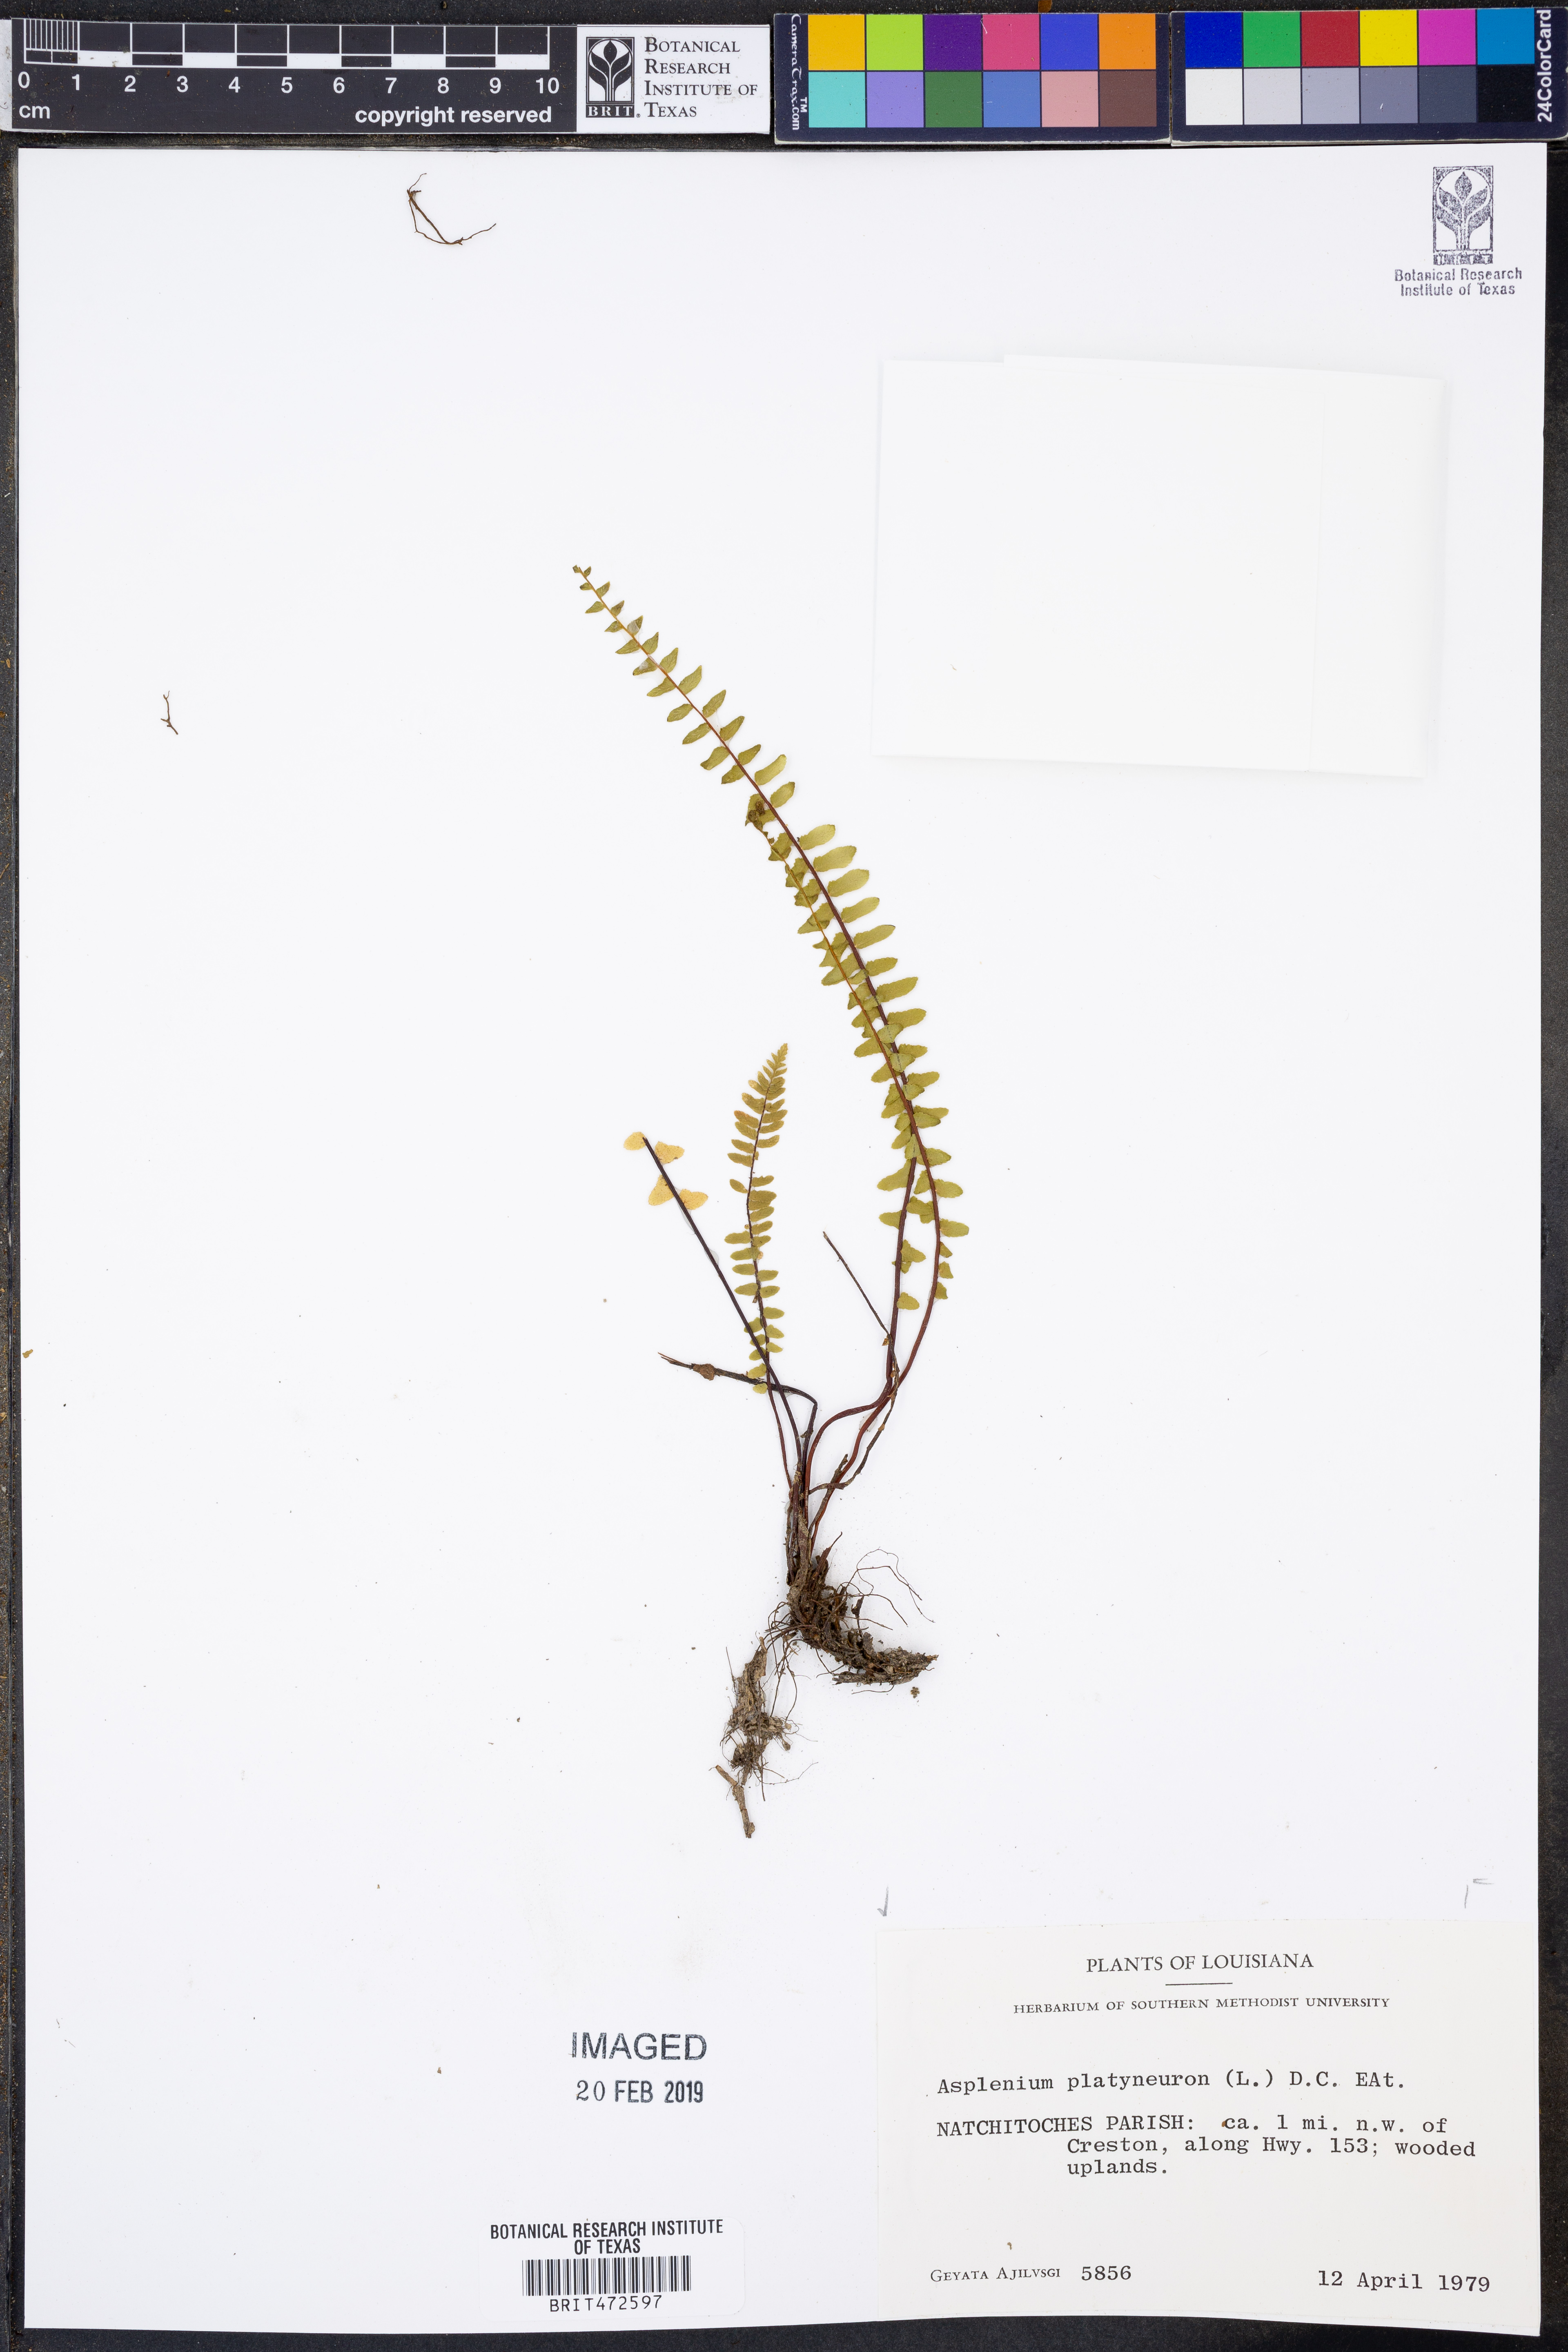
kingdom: Plantae
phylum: Tracheophyta
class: Polypodiopsida
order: Polypodiales
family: Aspleniaceae
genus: Asplenium
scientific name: Asplenium platyneuron
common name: Ebony spleenwort
